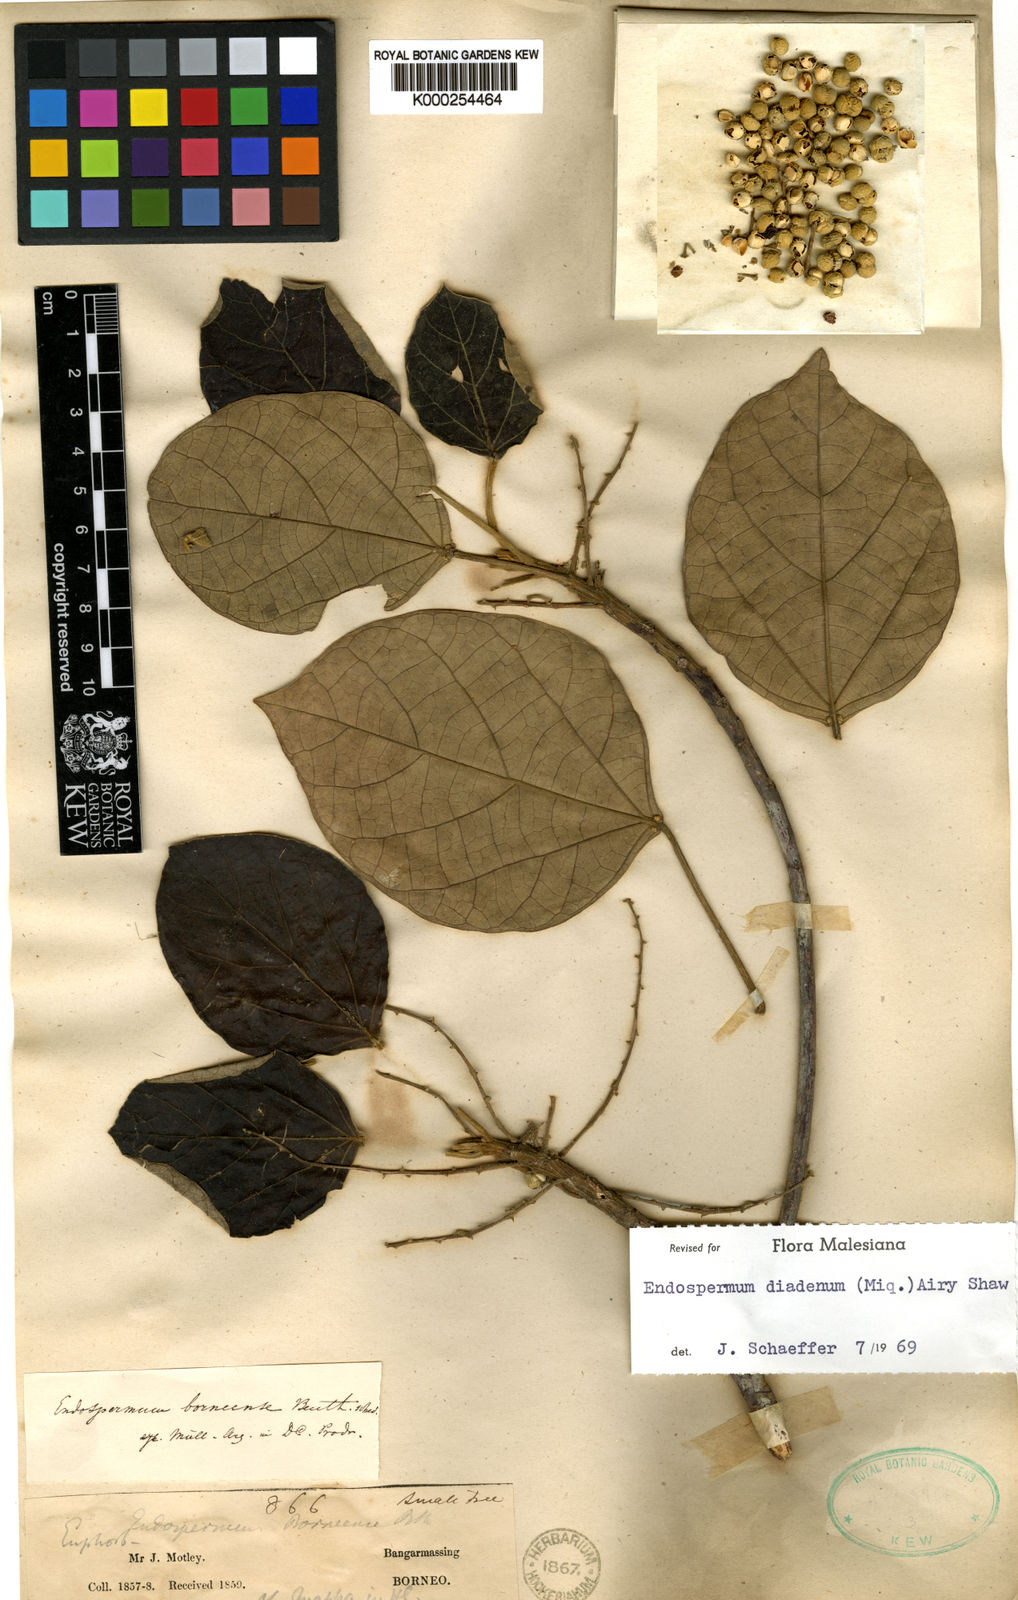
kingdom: Plantae
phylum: Tracheophyta
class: Magnoliopsida
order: Malpighiales
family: Euphorbiaceae
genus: Endospermum
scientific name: Endospermum diadenum
